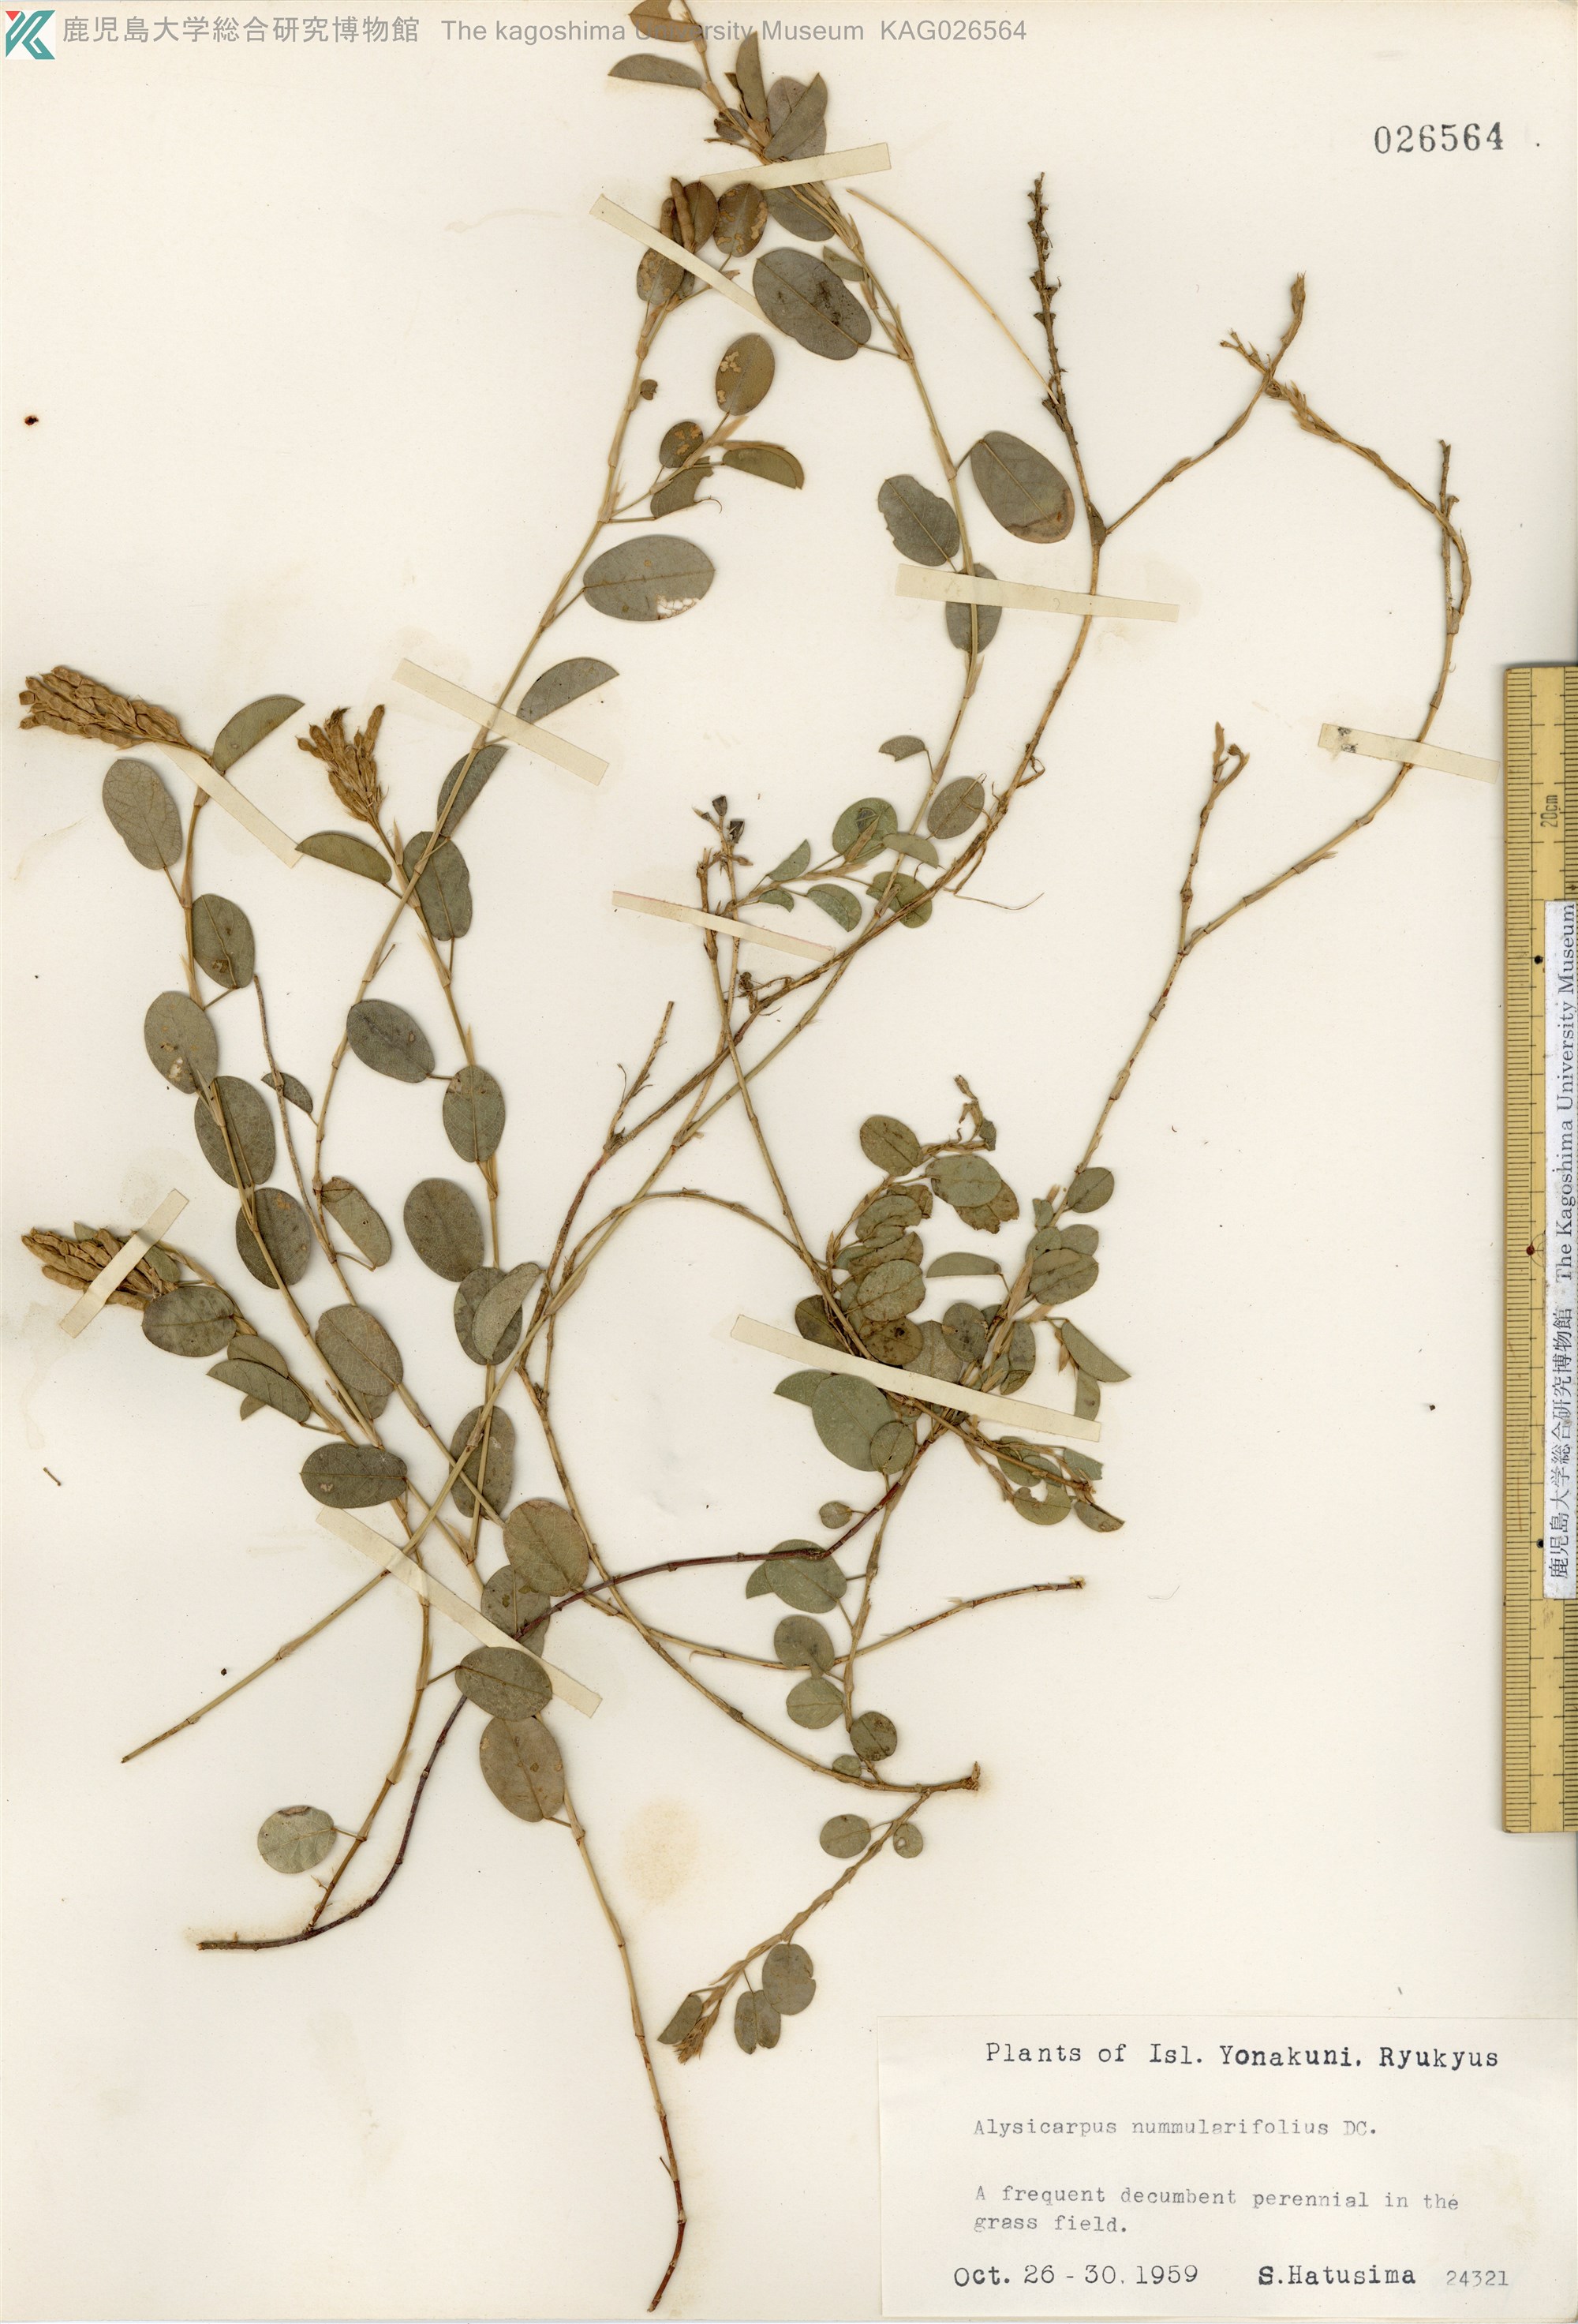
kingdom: Plantae
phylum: Tracheophyta
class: Magnoliopsida
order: Fabales
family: Fabaceae
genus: Alysicarpus
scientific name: Alysicarpus vaginalis
